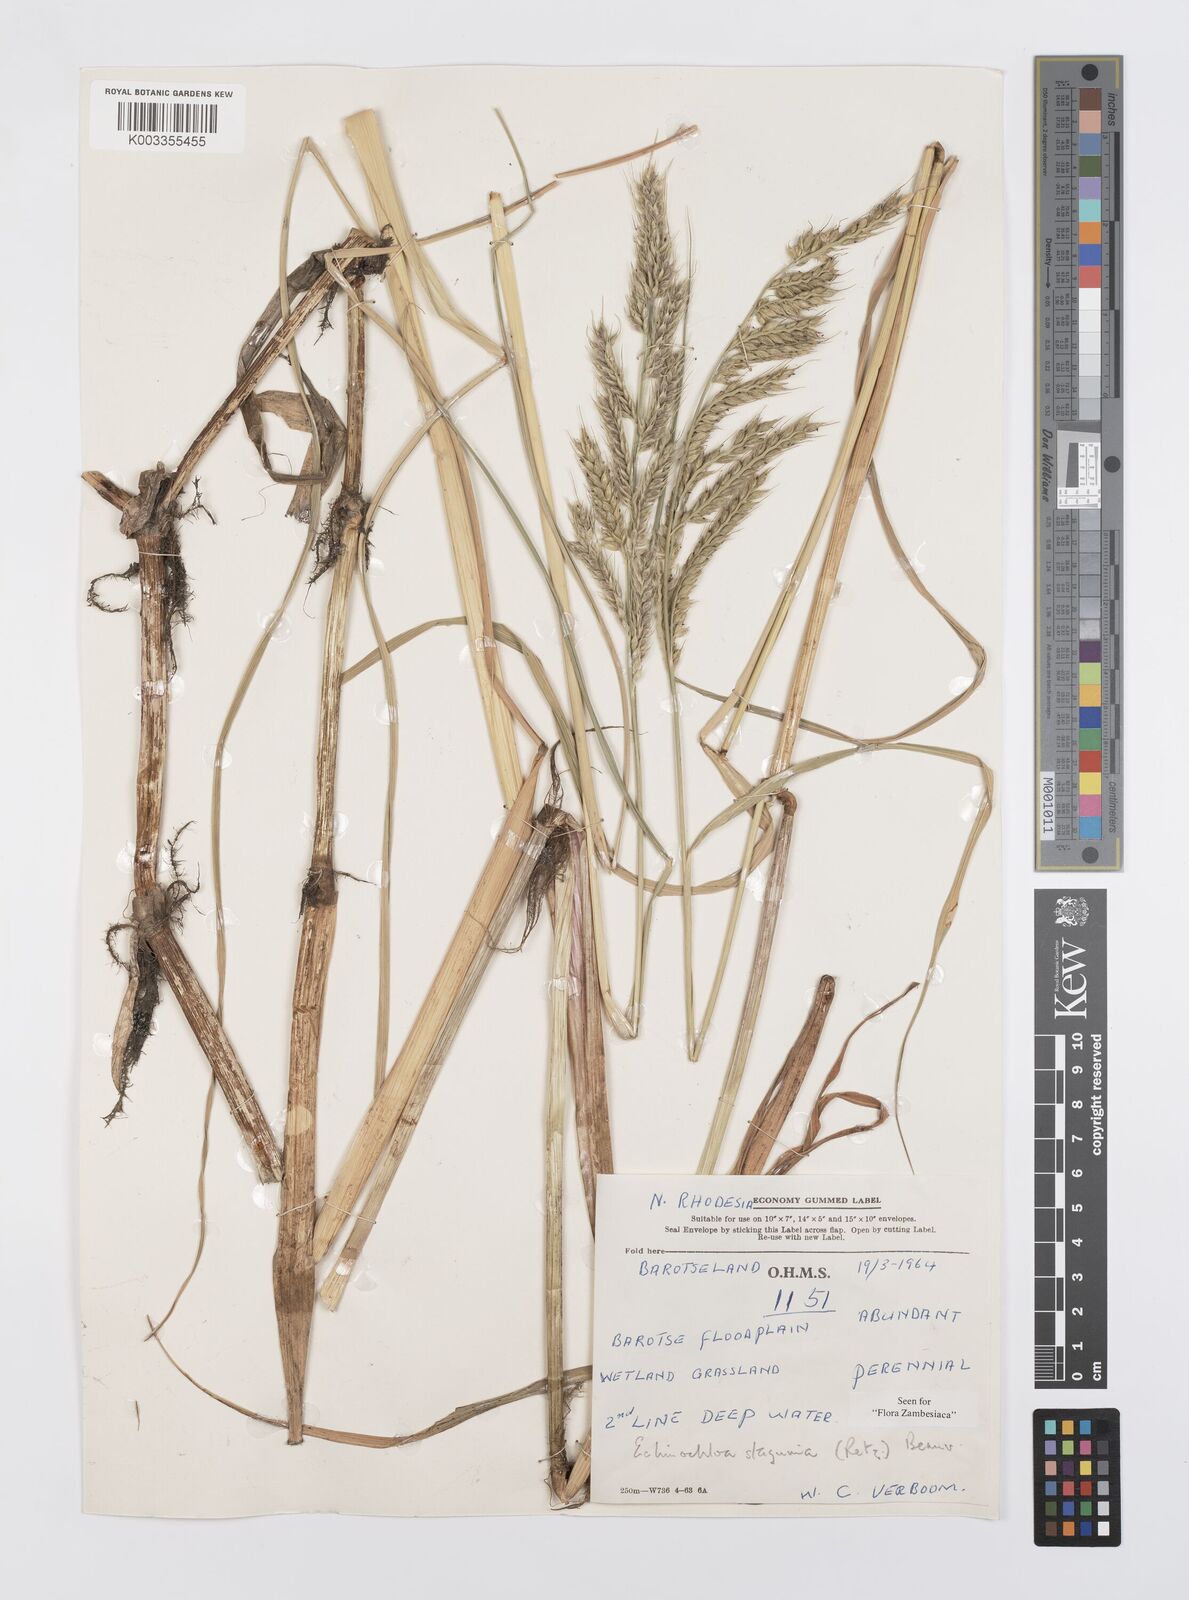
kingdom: Plantae
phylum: Tracheophyta
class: Liliopsida
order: Poales
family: Poaceae
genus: Echinochloa
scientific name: Echinochloa stagnina
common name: Burgu grass
